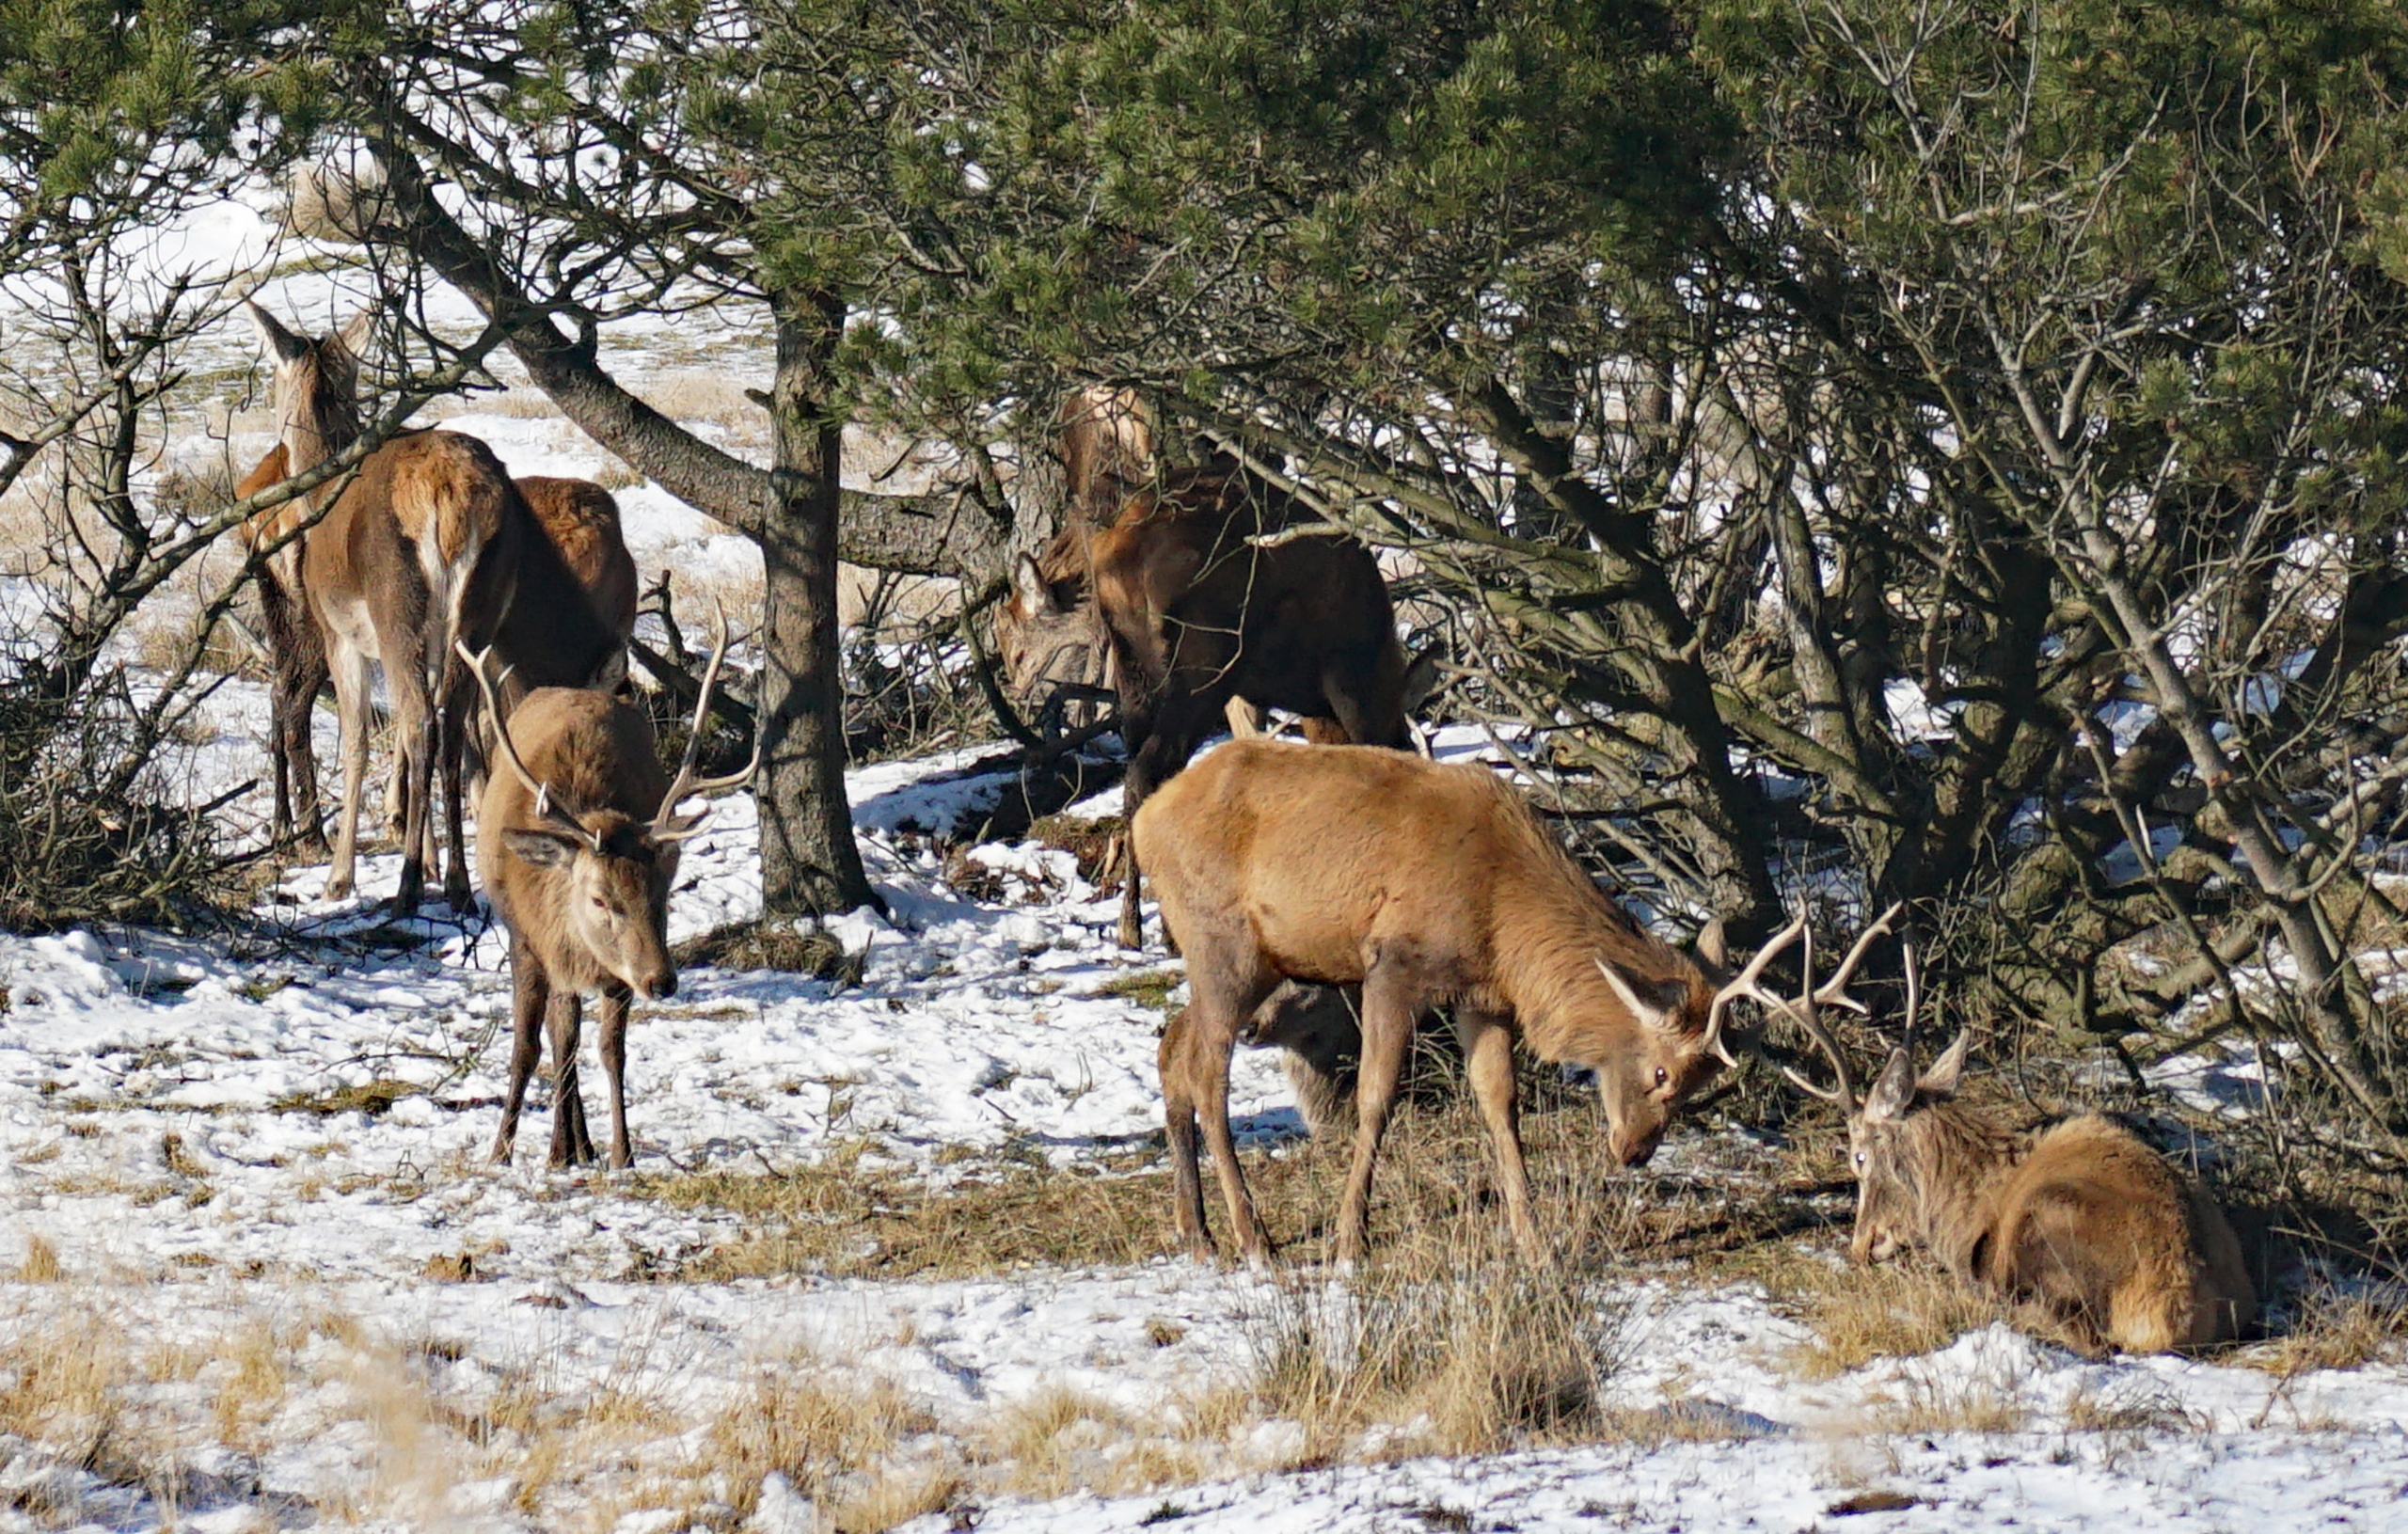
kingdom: Animalia
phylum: Chordata
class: Mammalia
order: Artiodactyla
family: Cervidae
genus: Cervus
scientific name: Cervus elaphus
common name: Krondyr
